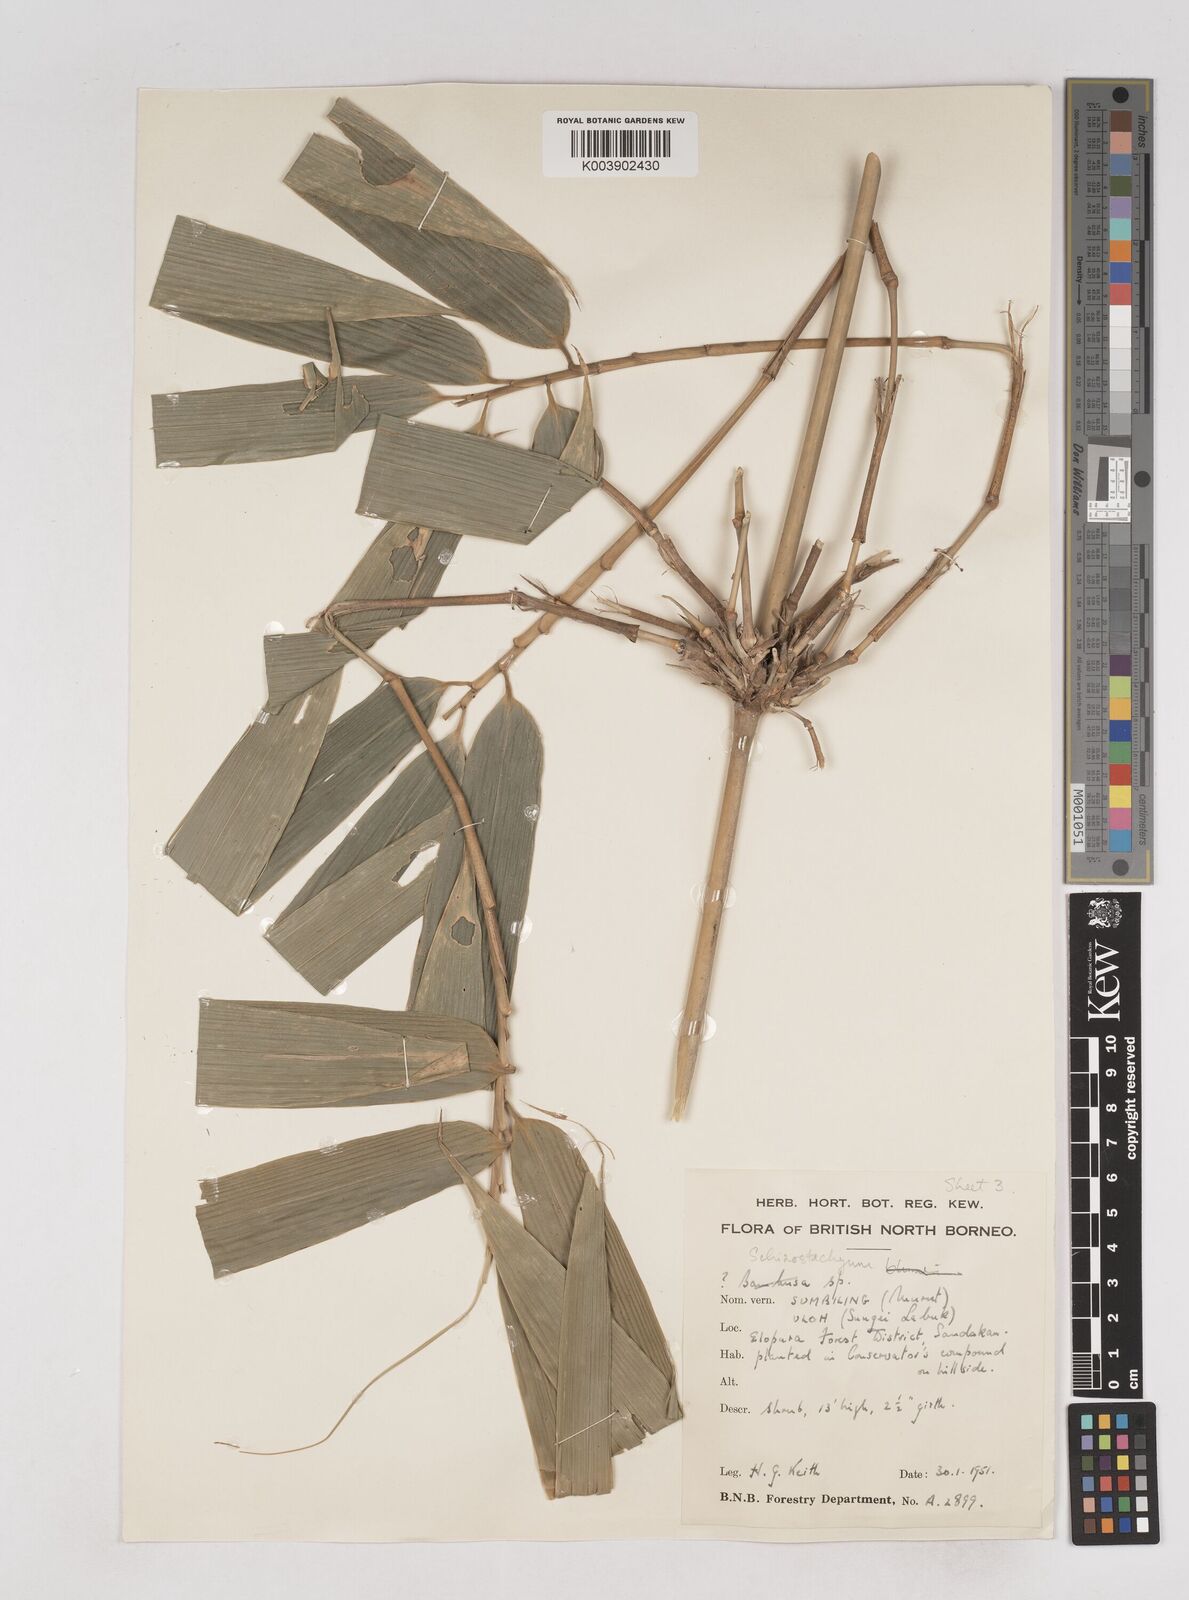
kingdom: Plantae
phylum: Tracheophyta
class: Liliopsida
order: Poales
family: Poaceae
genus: Schizostachyum
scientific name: Schizostachyum
